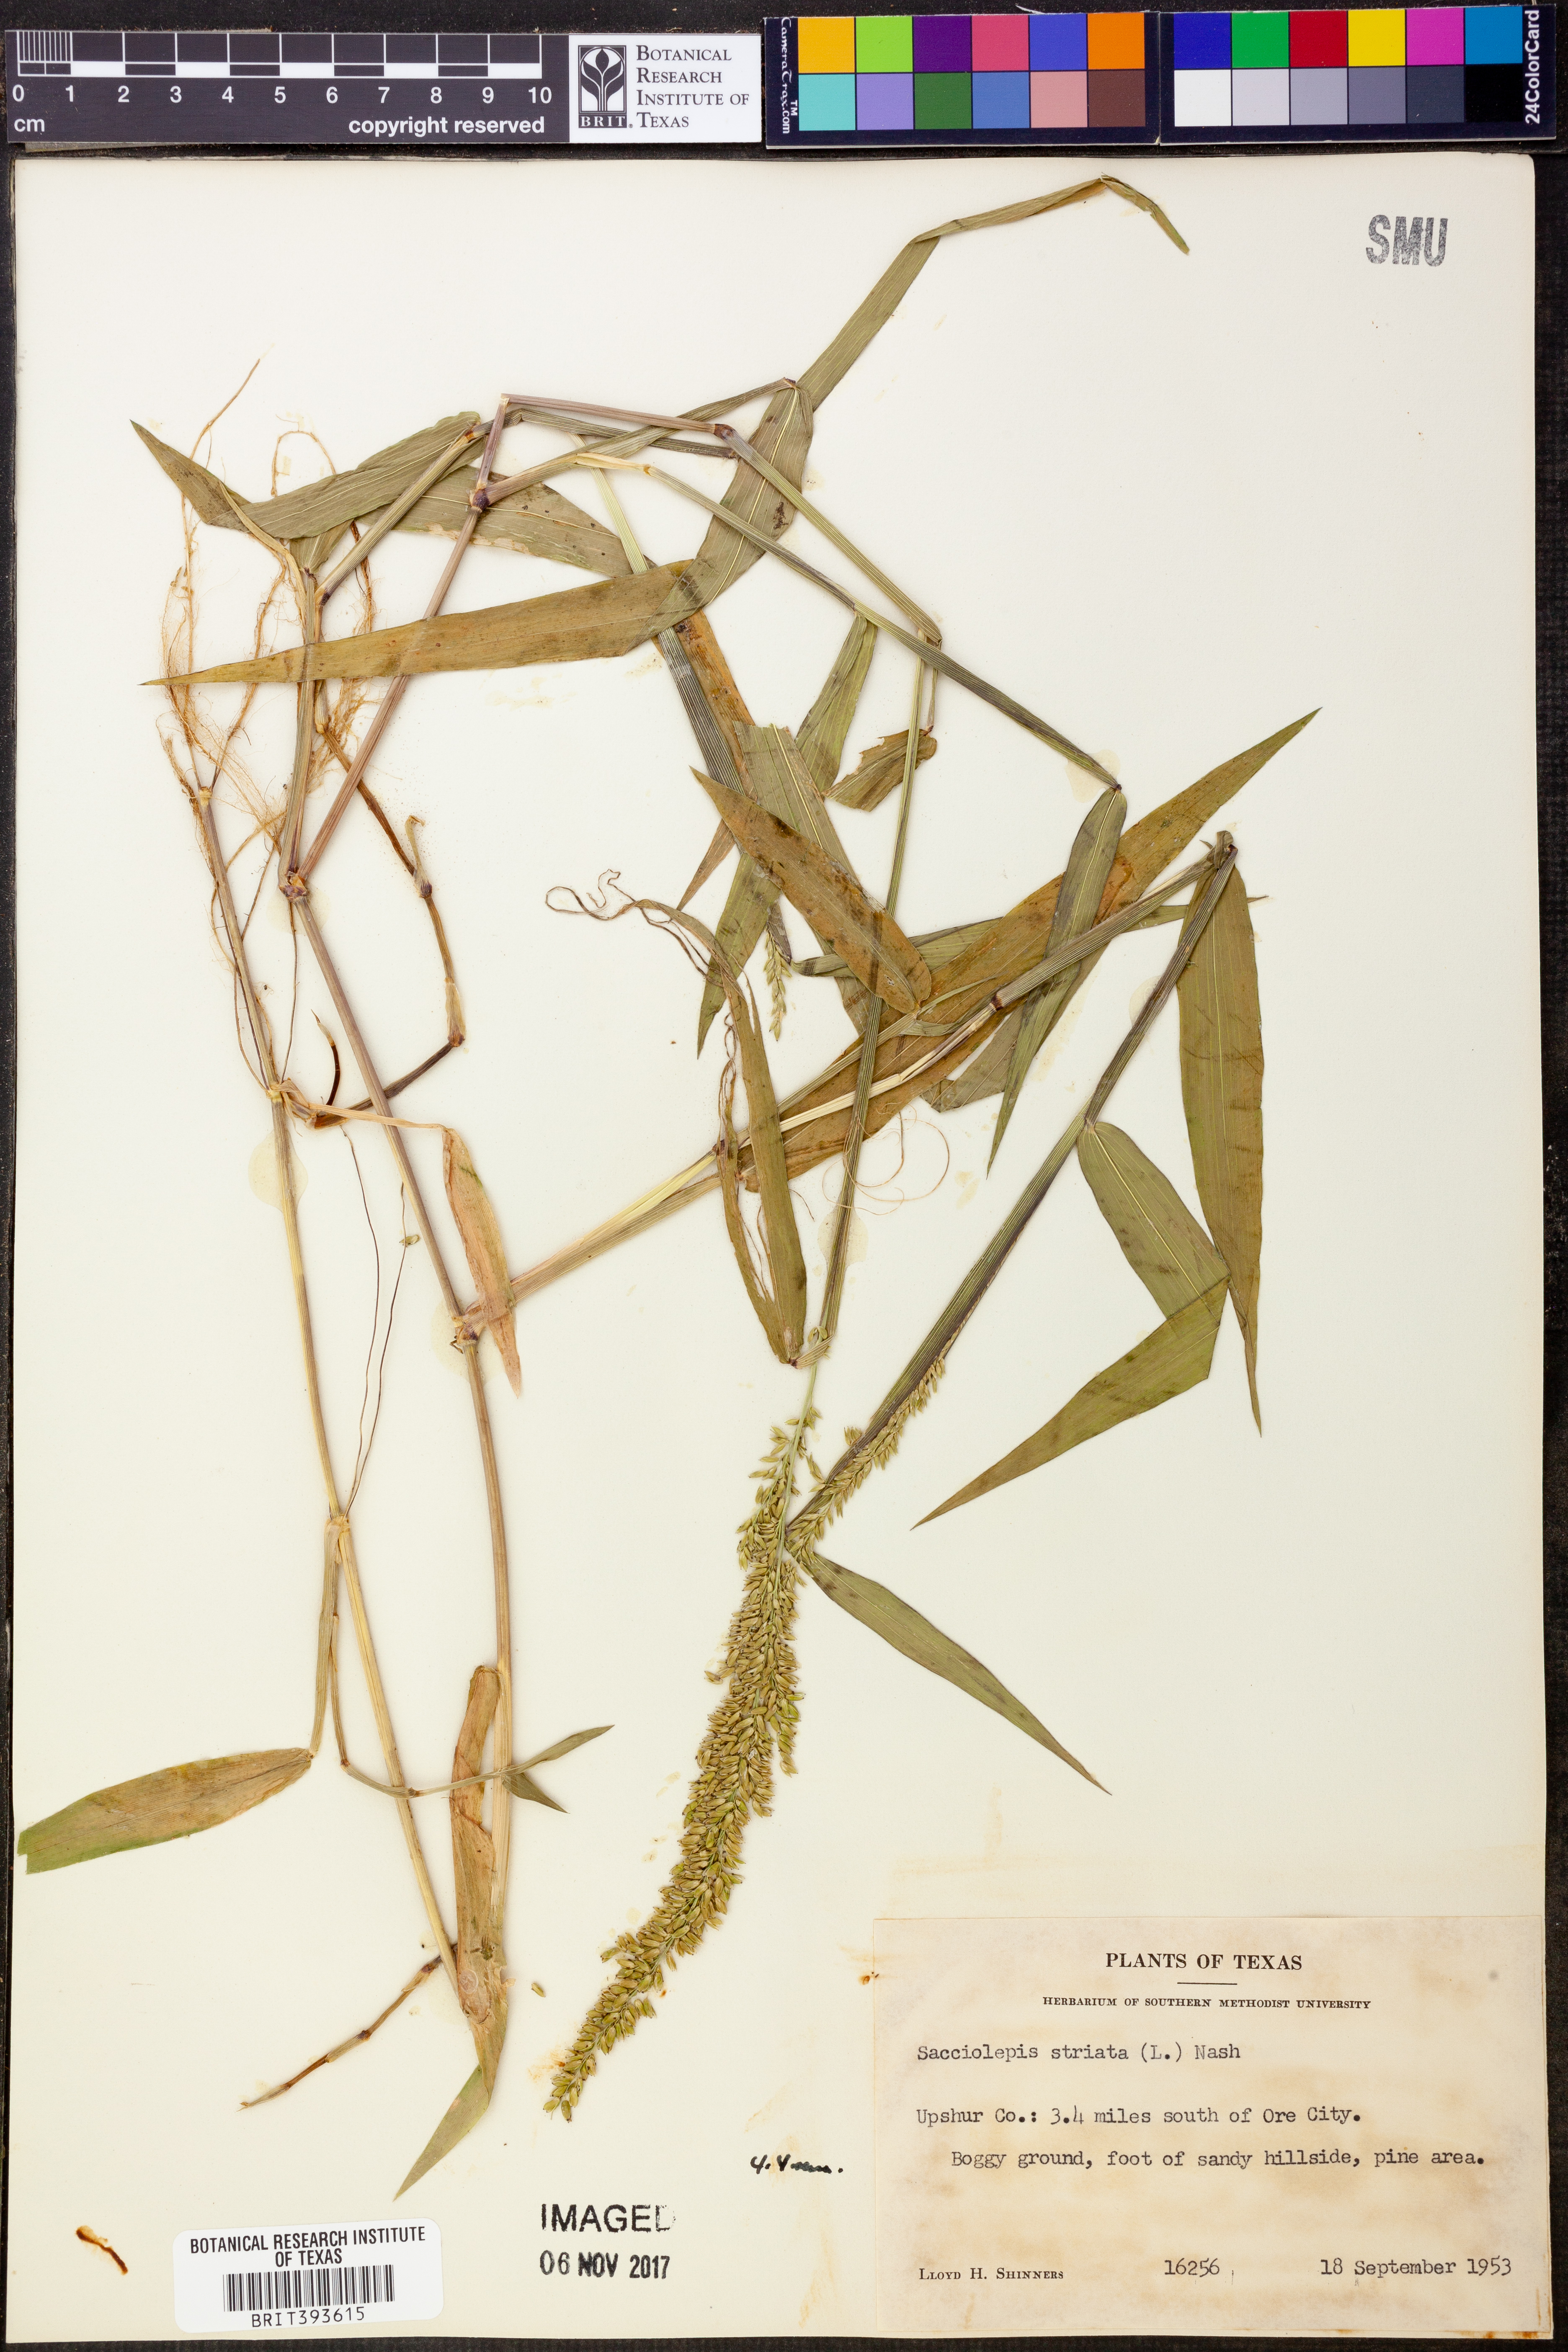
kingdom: Plantae
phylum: Tracheophyta
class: Liliopsida
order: Poales
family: Poaceae
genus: Sacciolepis
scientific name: Sacciolepis striata
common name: American cupscale
